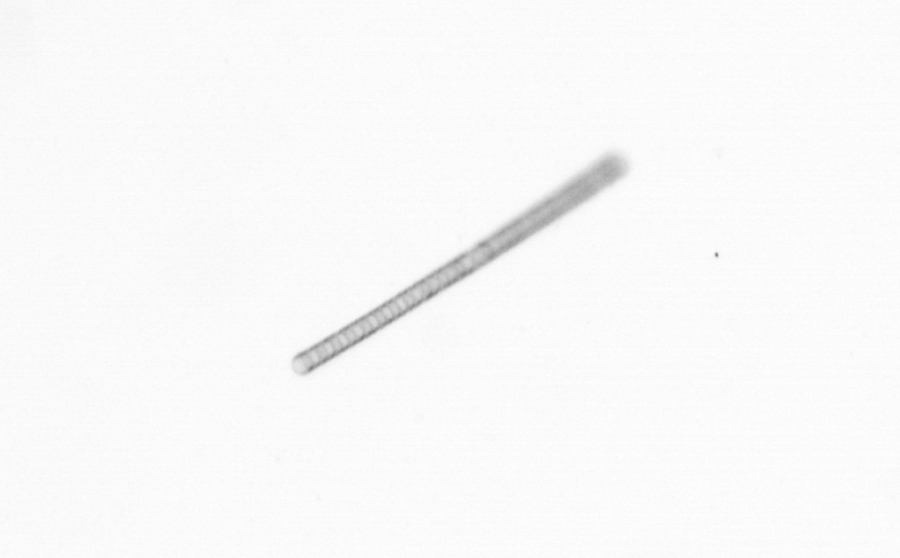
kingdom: Chromista
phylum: Ochrophyta
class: Bacillariophyceae
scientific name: Bacillariophyceae
